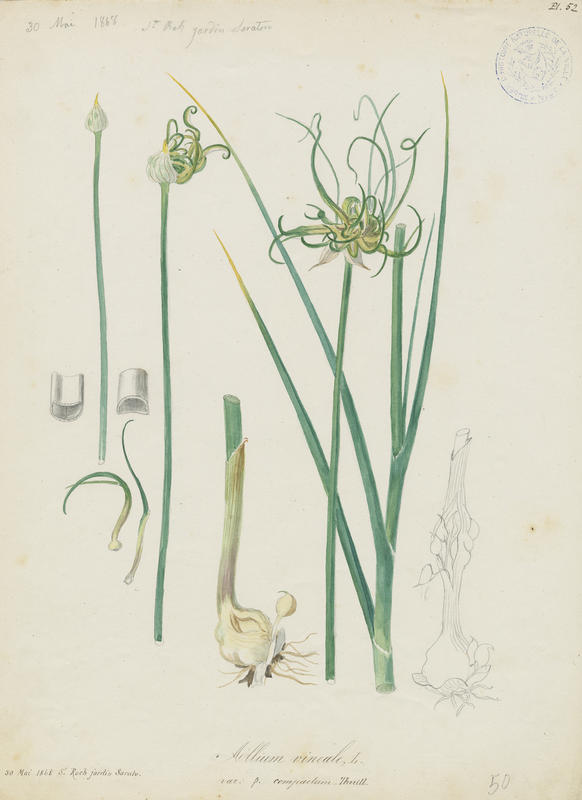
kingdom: Plantae
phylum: Tracheophyta
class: Liliopsida
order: Asparagales
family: Amaryllidaceae
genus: Allium
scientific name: Allium vineale
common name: Crow garlic
